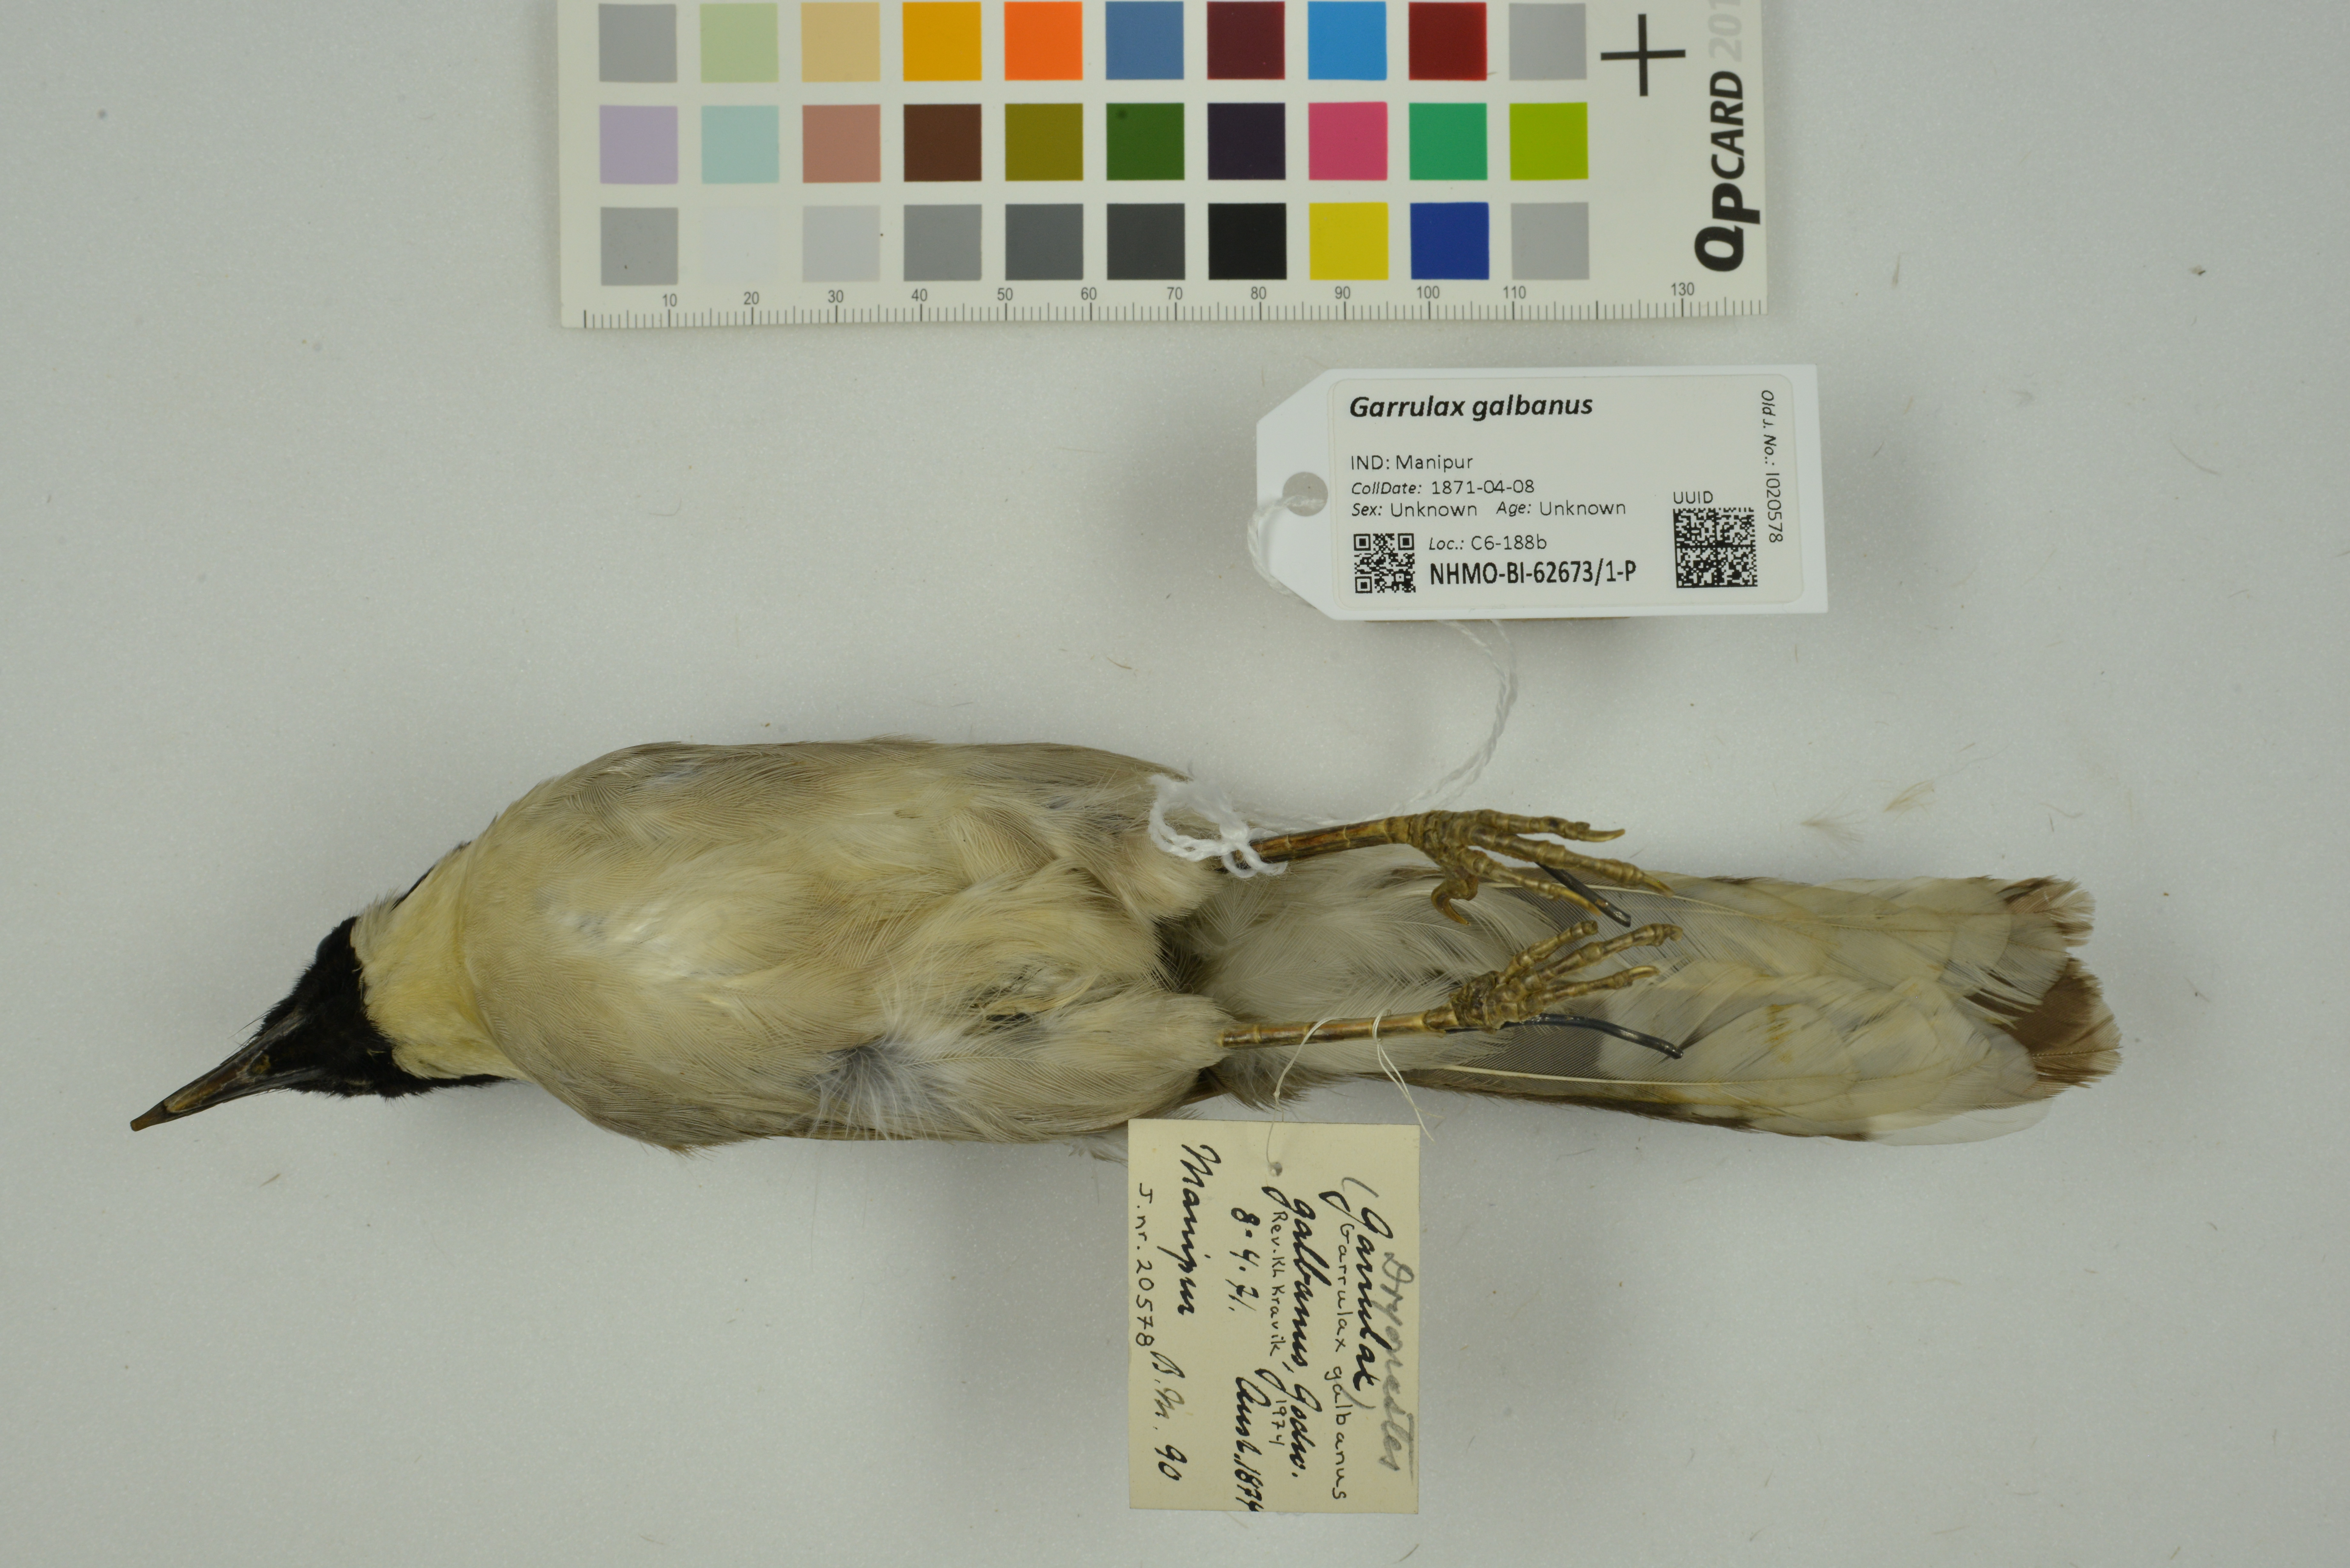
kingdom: Animalia
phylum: Chordata
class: Aves
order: Passeriformes
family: Leiothrichidae
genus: Garrulax
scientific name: Garrulax galbanus
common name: Yellow-throated laughingthrush
